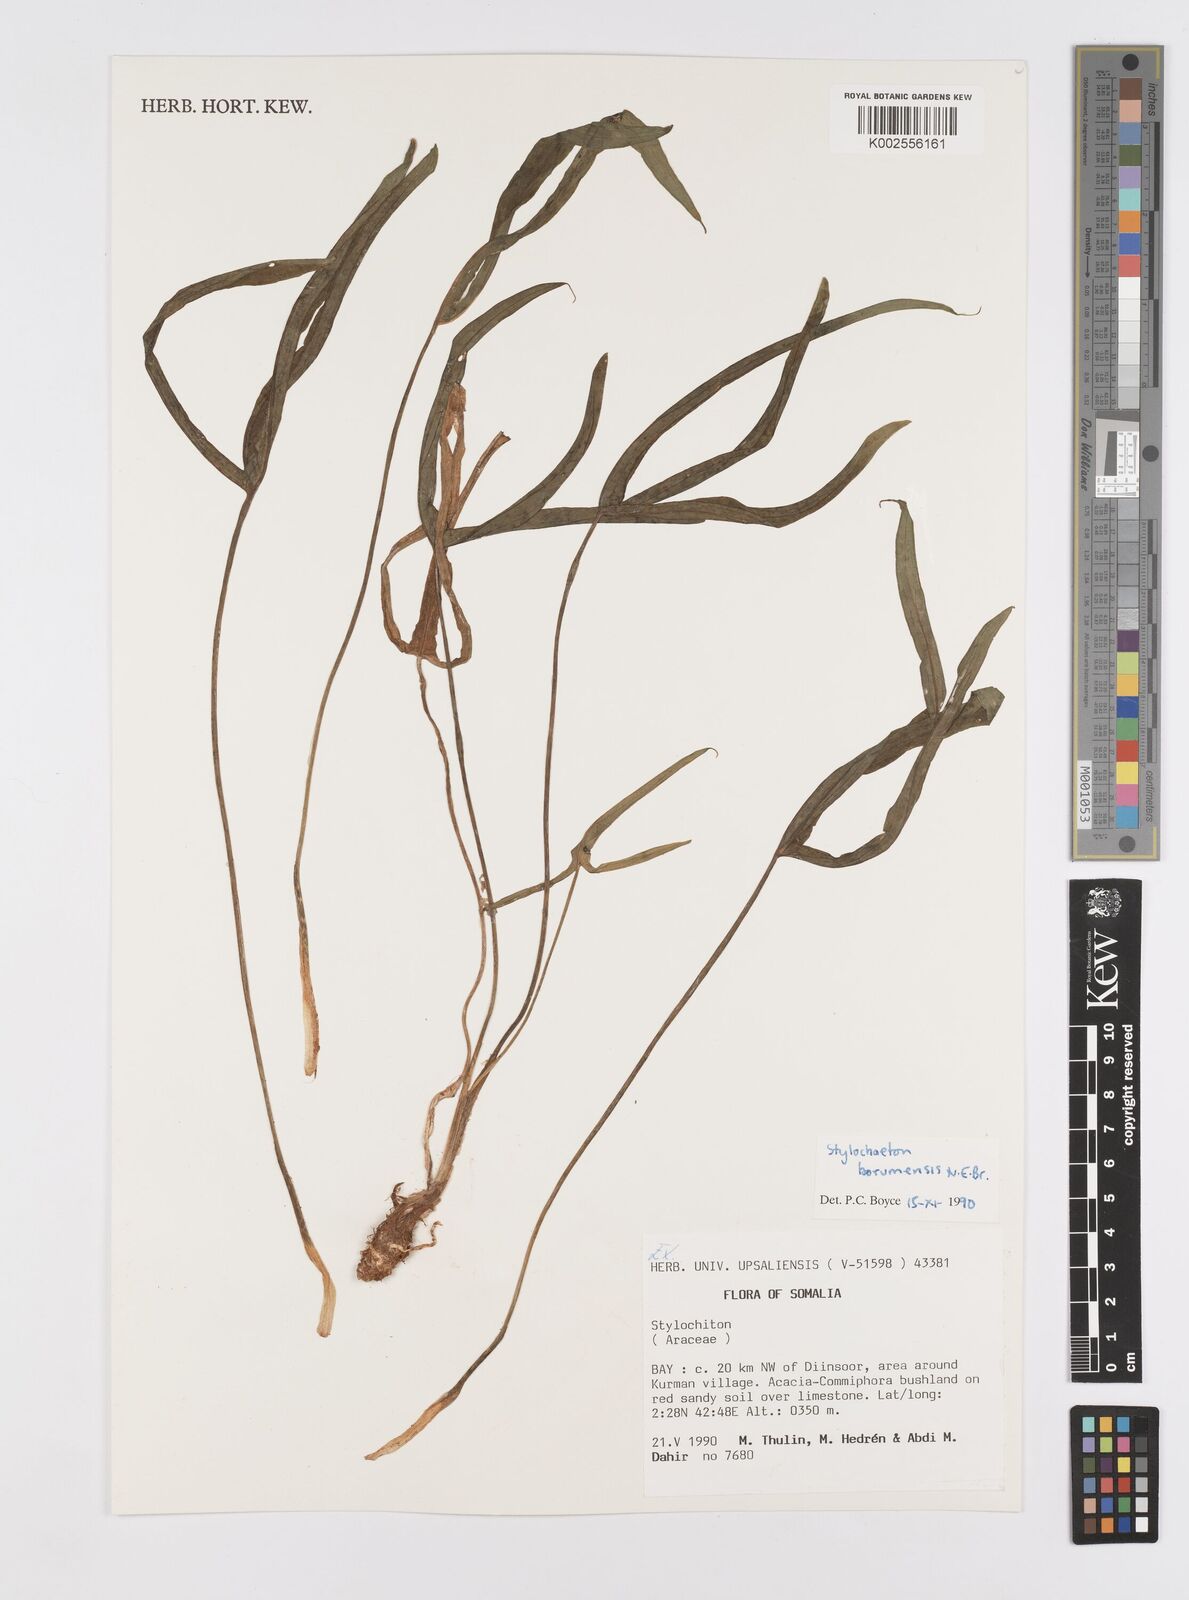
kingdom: Plantae
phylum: Tracheophyta
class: Liliopsida
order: Alismatales
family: Araceae
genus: Stylochaeton
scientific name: Stylochaeton borumense
